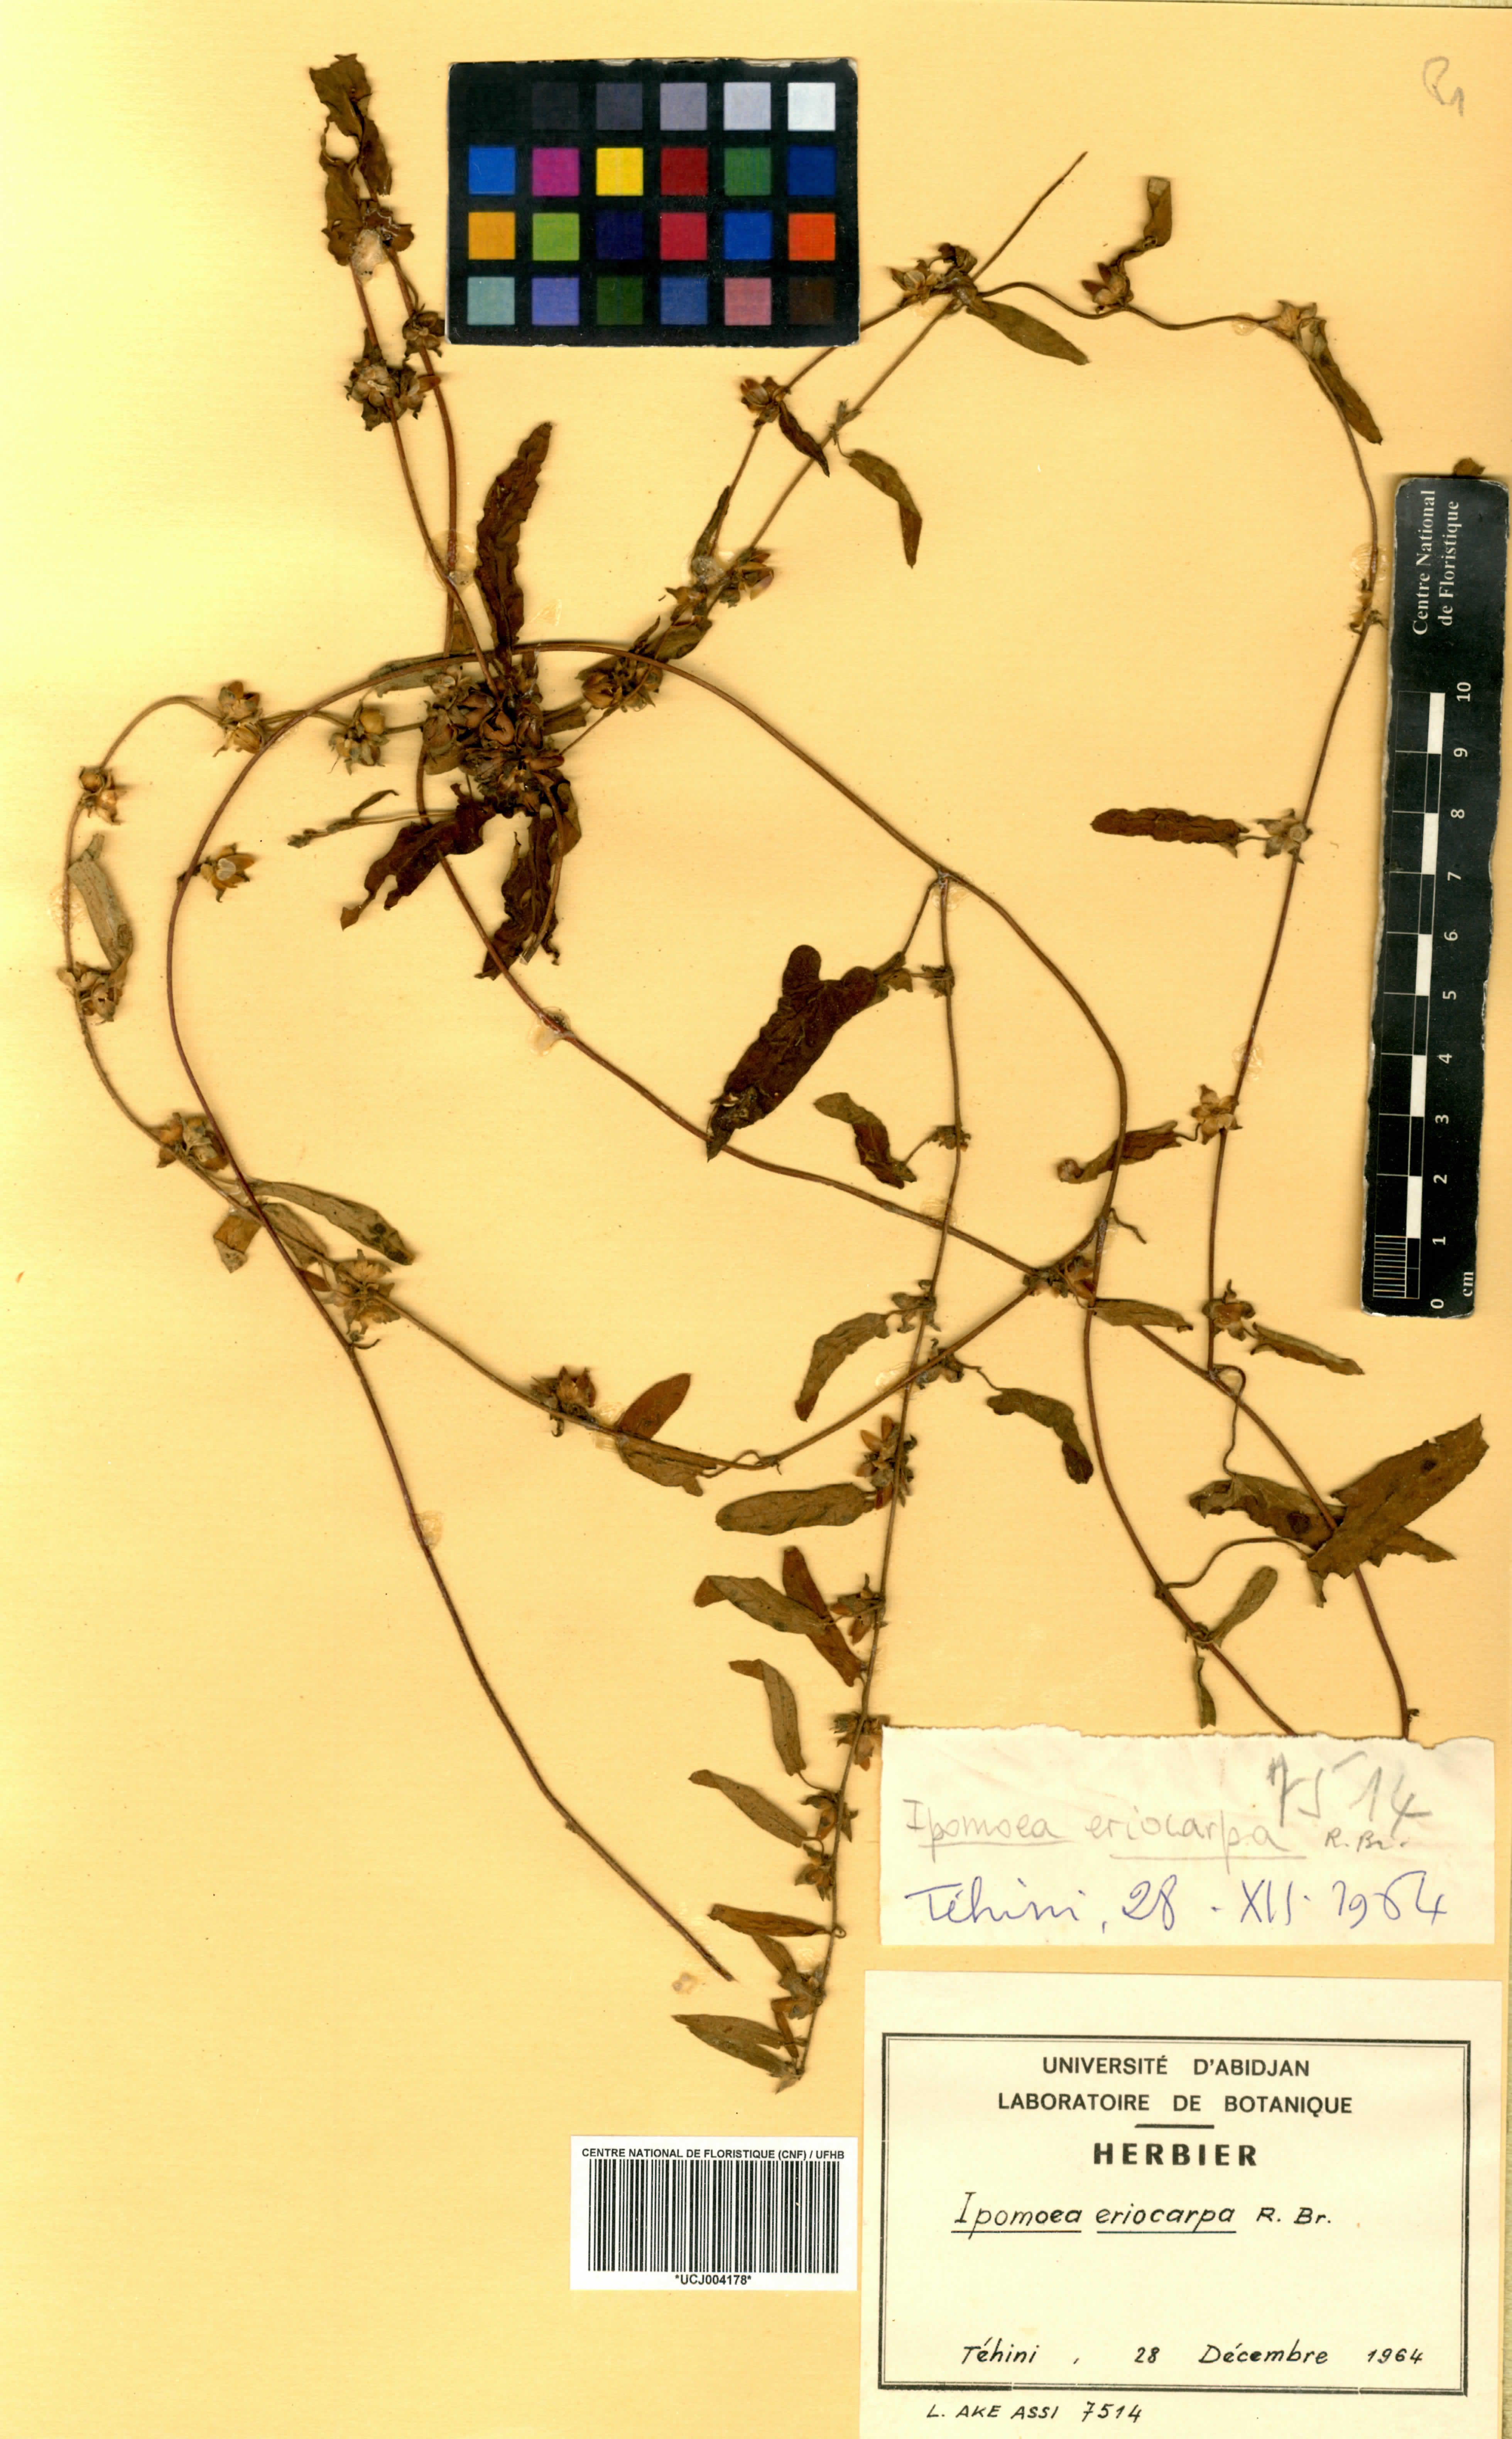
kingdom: Plantae
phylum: Tracheophyta
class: Magnoliopsida
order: Solanales
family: Convolvulaceae
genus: Ipomoea
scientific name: Ipomoea eriocarpa
